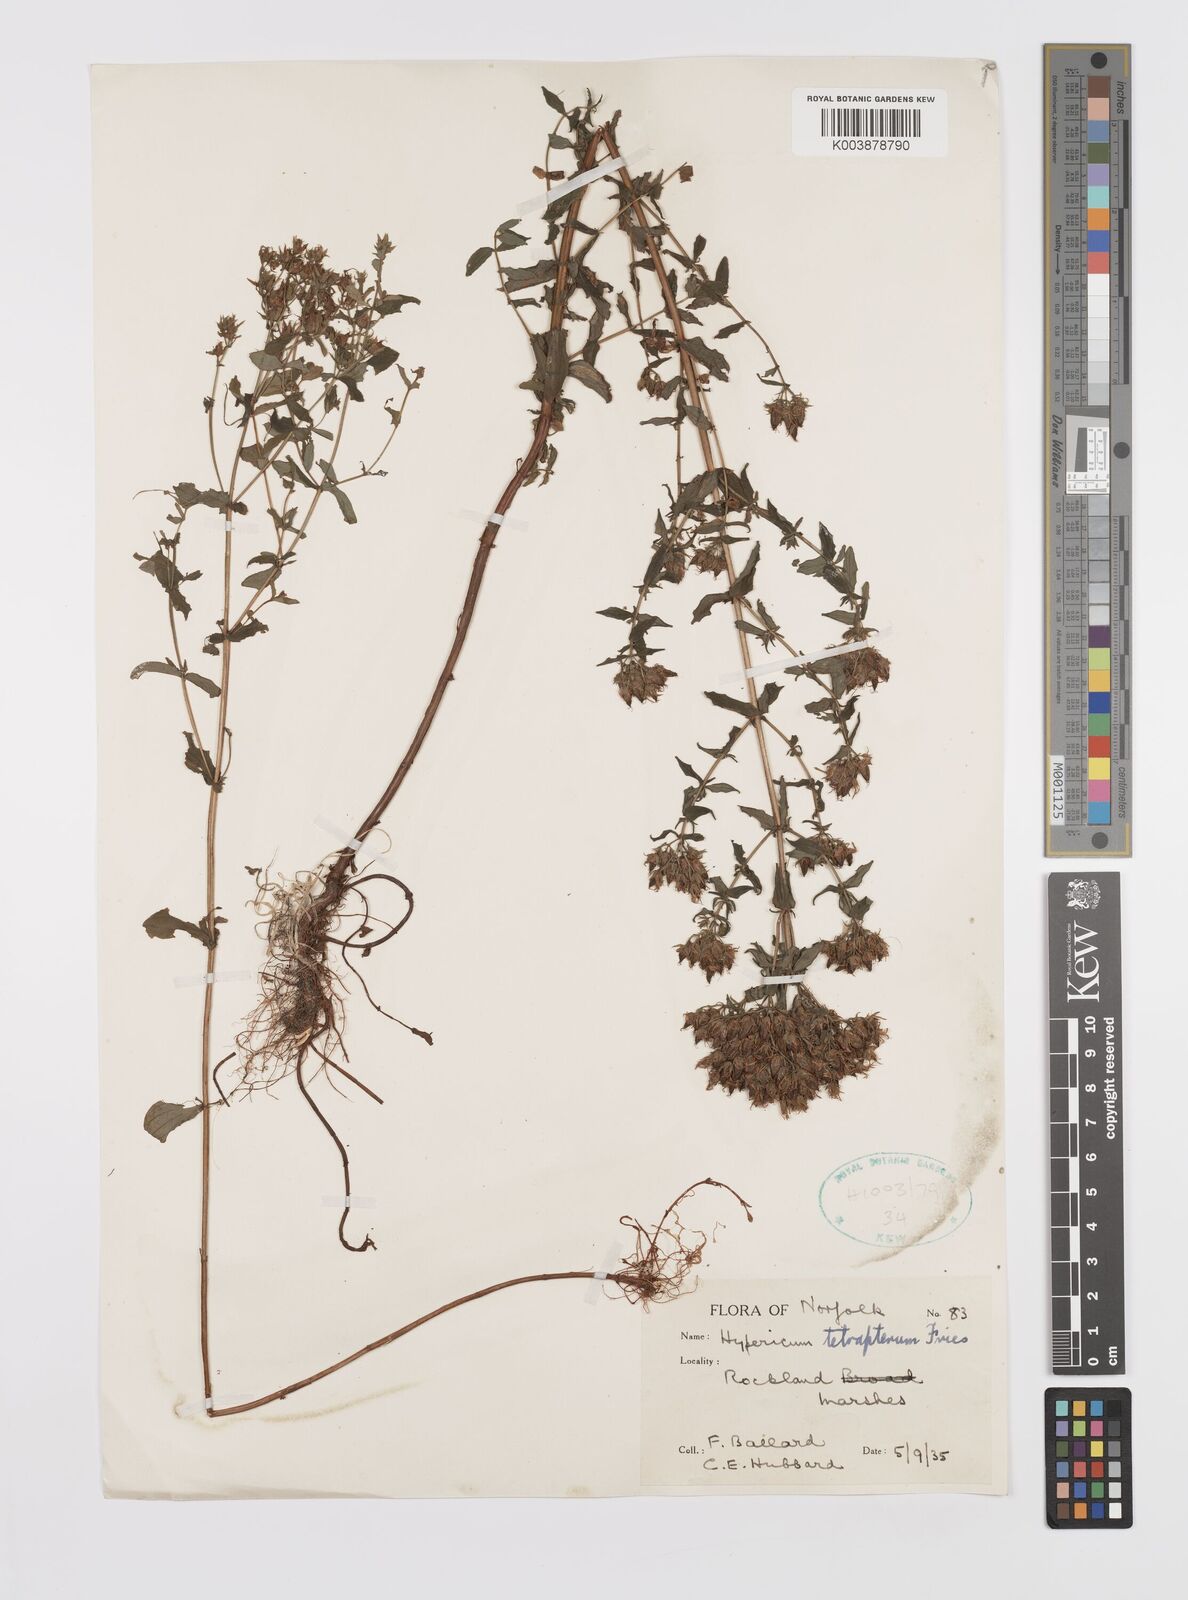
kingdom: Plantae
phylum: Tracheophyta
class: Magnoliopsida
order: Malpighiales
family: Hypericaceae
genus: Hypericum
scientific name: Hypericum tetrapterum
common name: Square-stalked st. john's-wort
